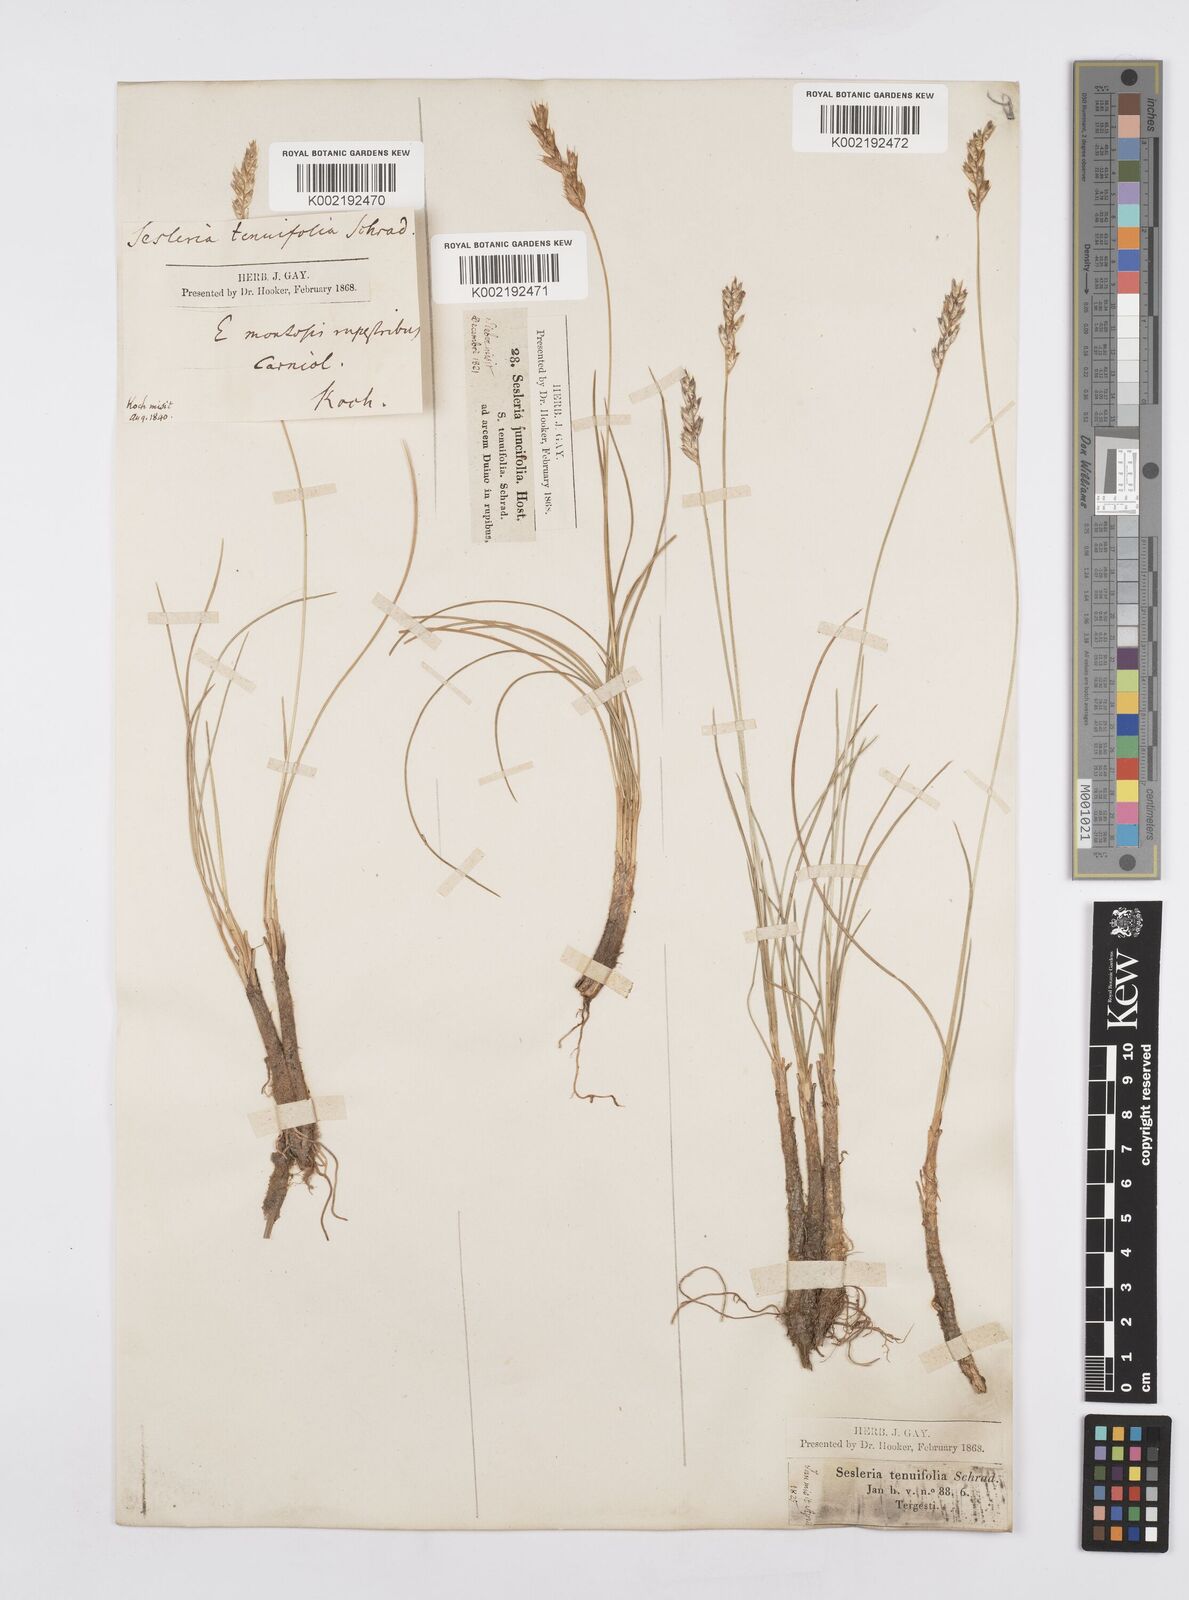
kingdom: Plantae
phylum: Tracheophyta
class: Liliopsida
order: Poales
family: Poaceae
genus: Sesleria
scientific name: Sesleria juncifolia
